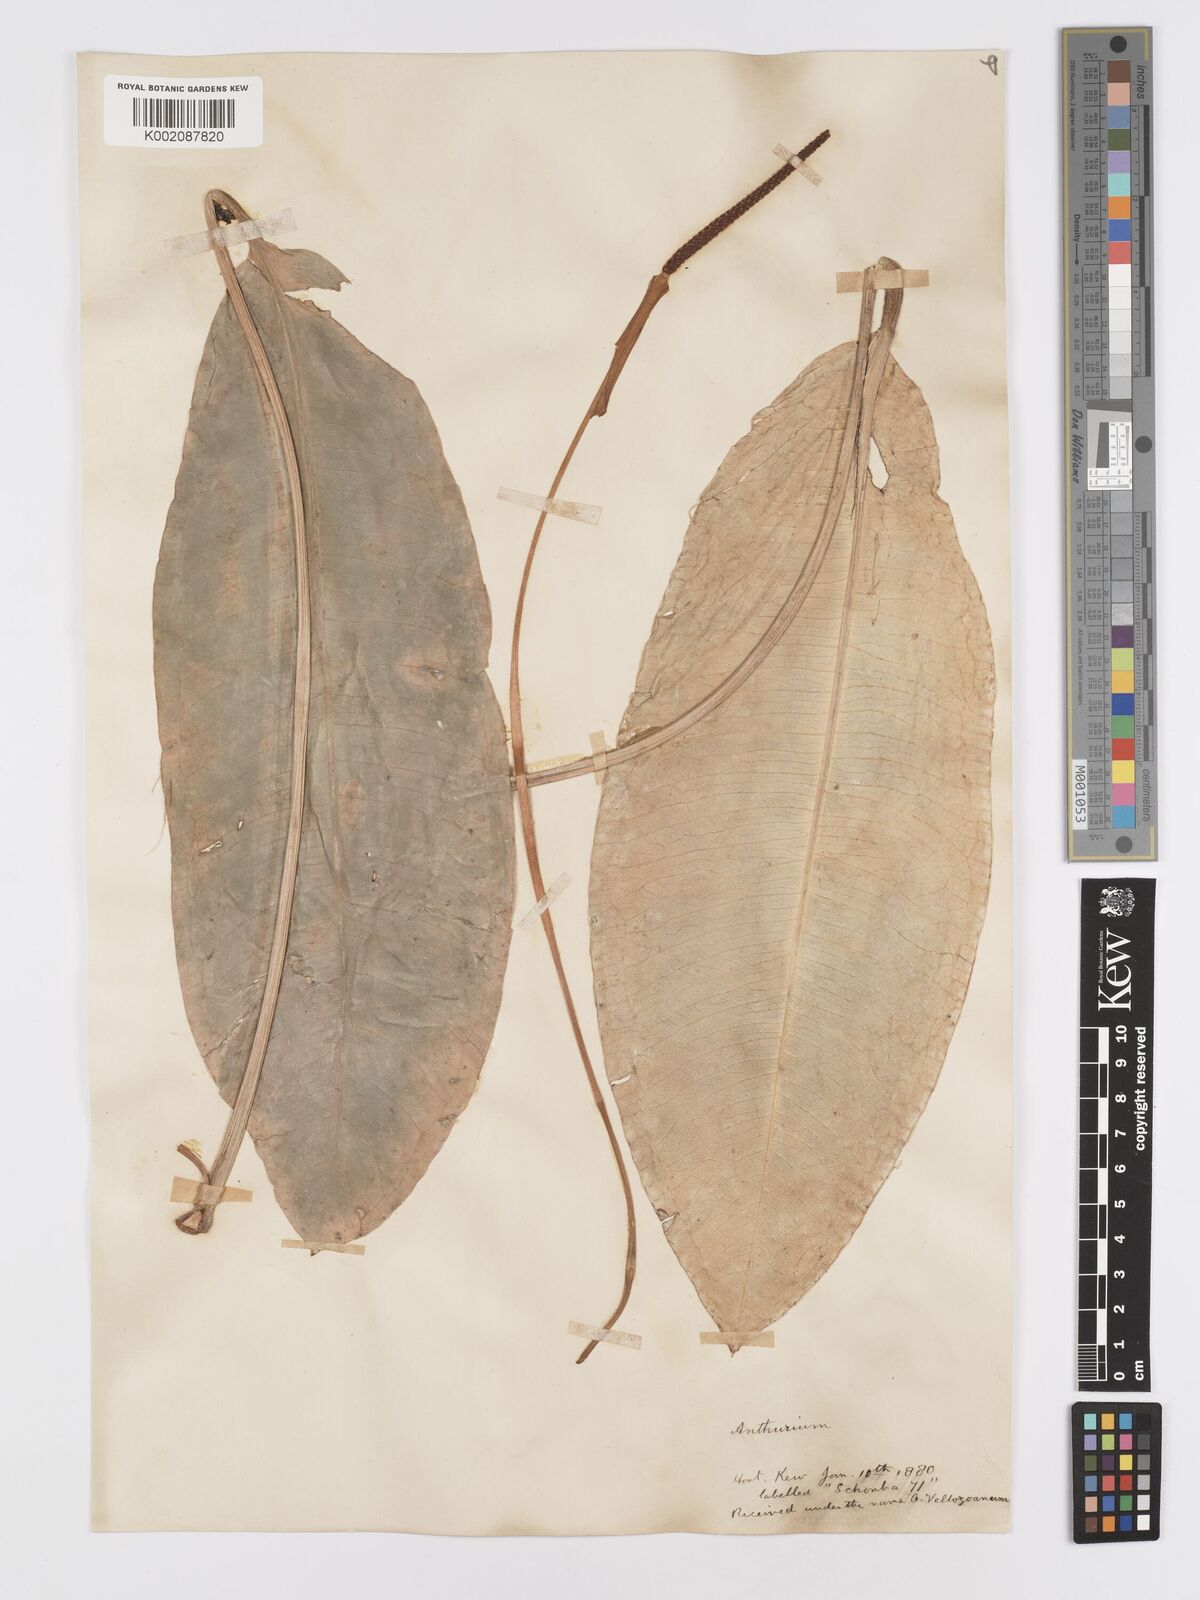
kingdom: Plantae
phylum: Tracheophyta
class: Liliopsida
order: Alismatales
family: Araceae
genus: Anthurium
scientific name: Anthurium parasiticum
